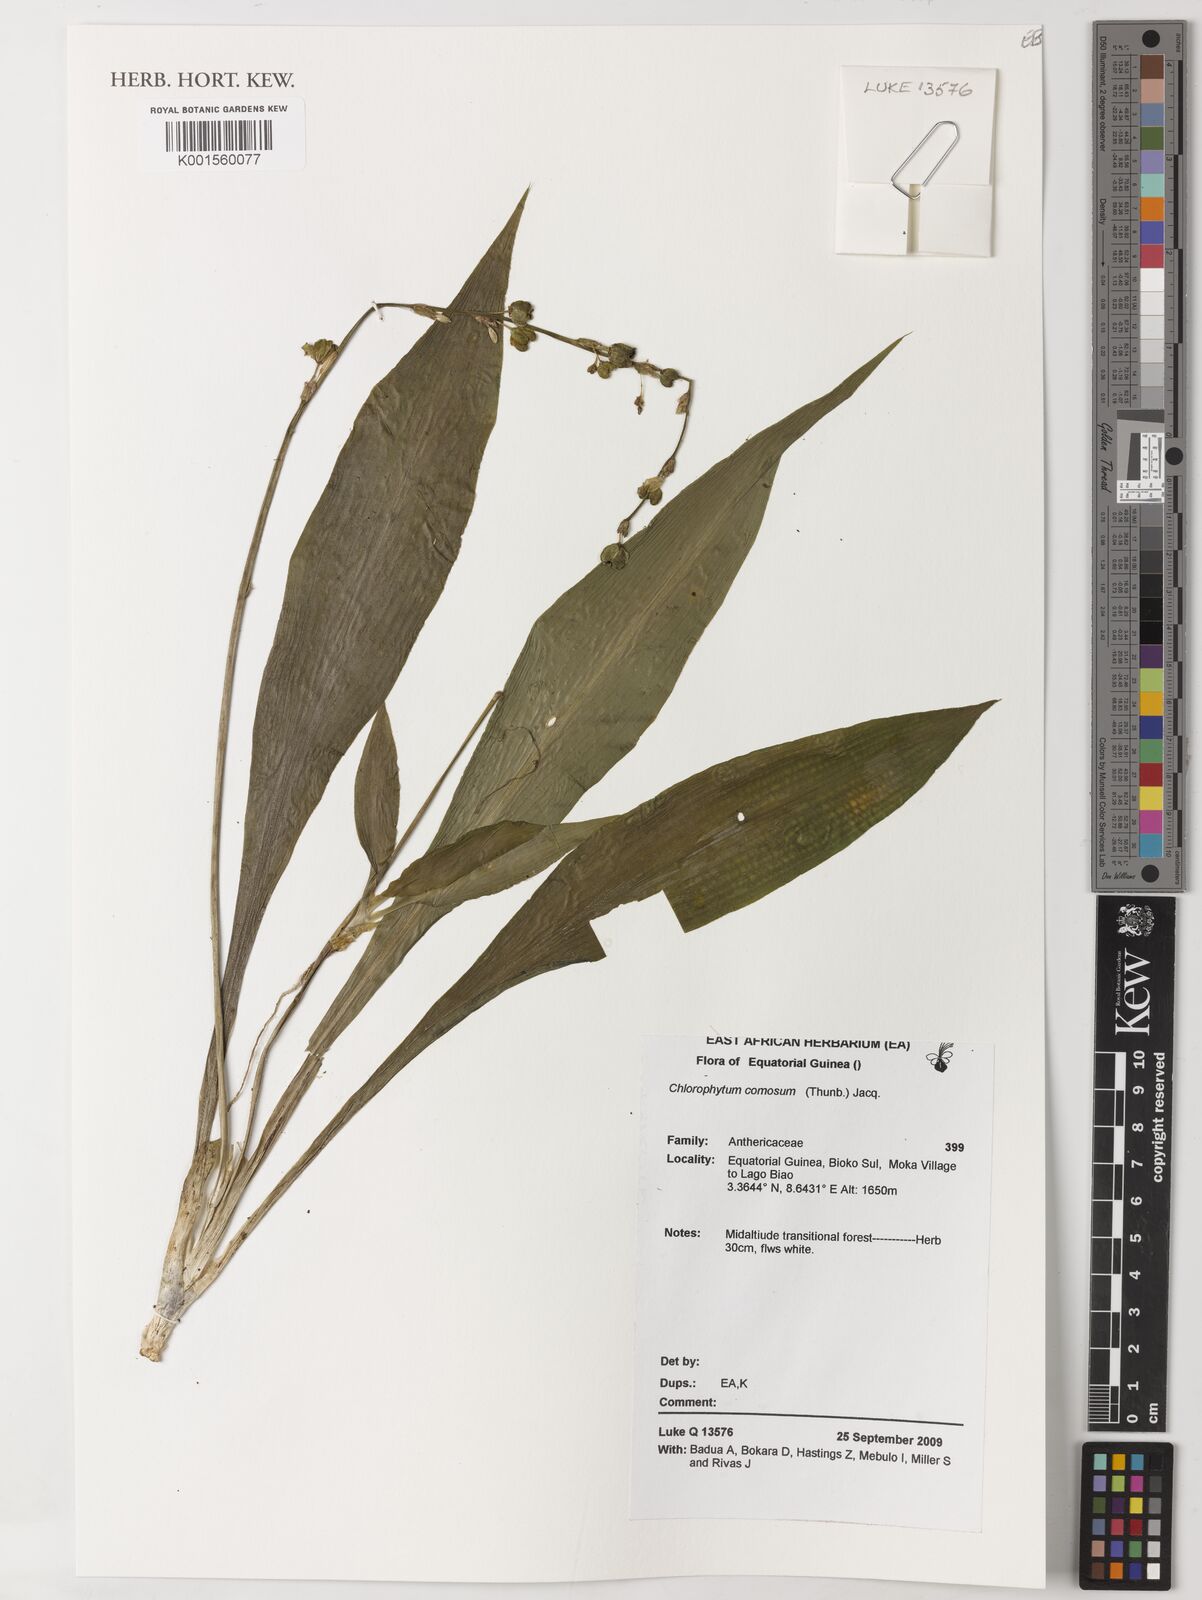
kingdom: Plantae
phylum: Tracheophyta
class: Liliopsida
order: Asparagales
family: Asparagaceae
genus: Chlorophytum
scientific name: Chlorophytum comosum
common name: Spider plant
